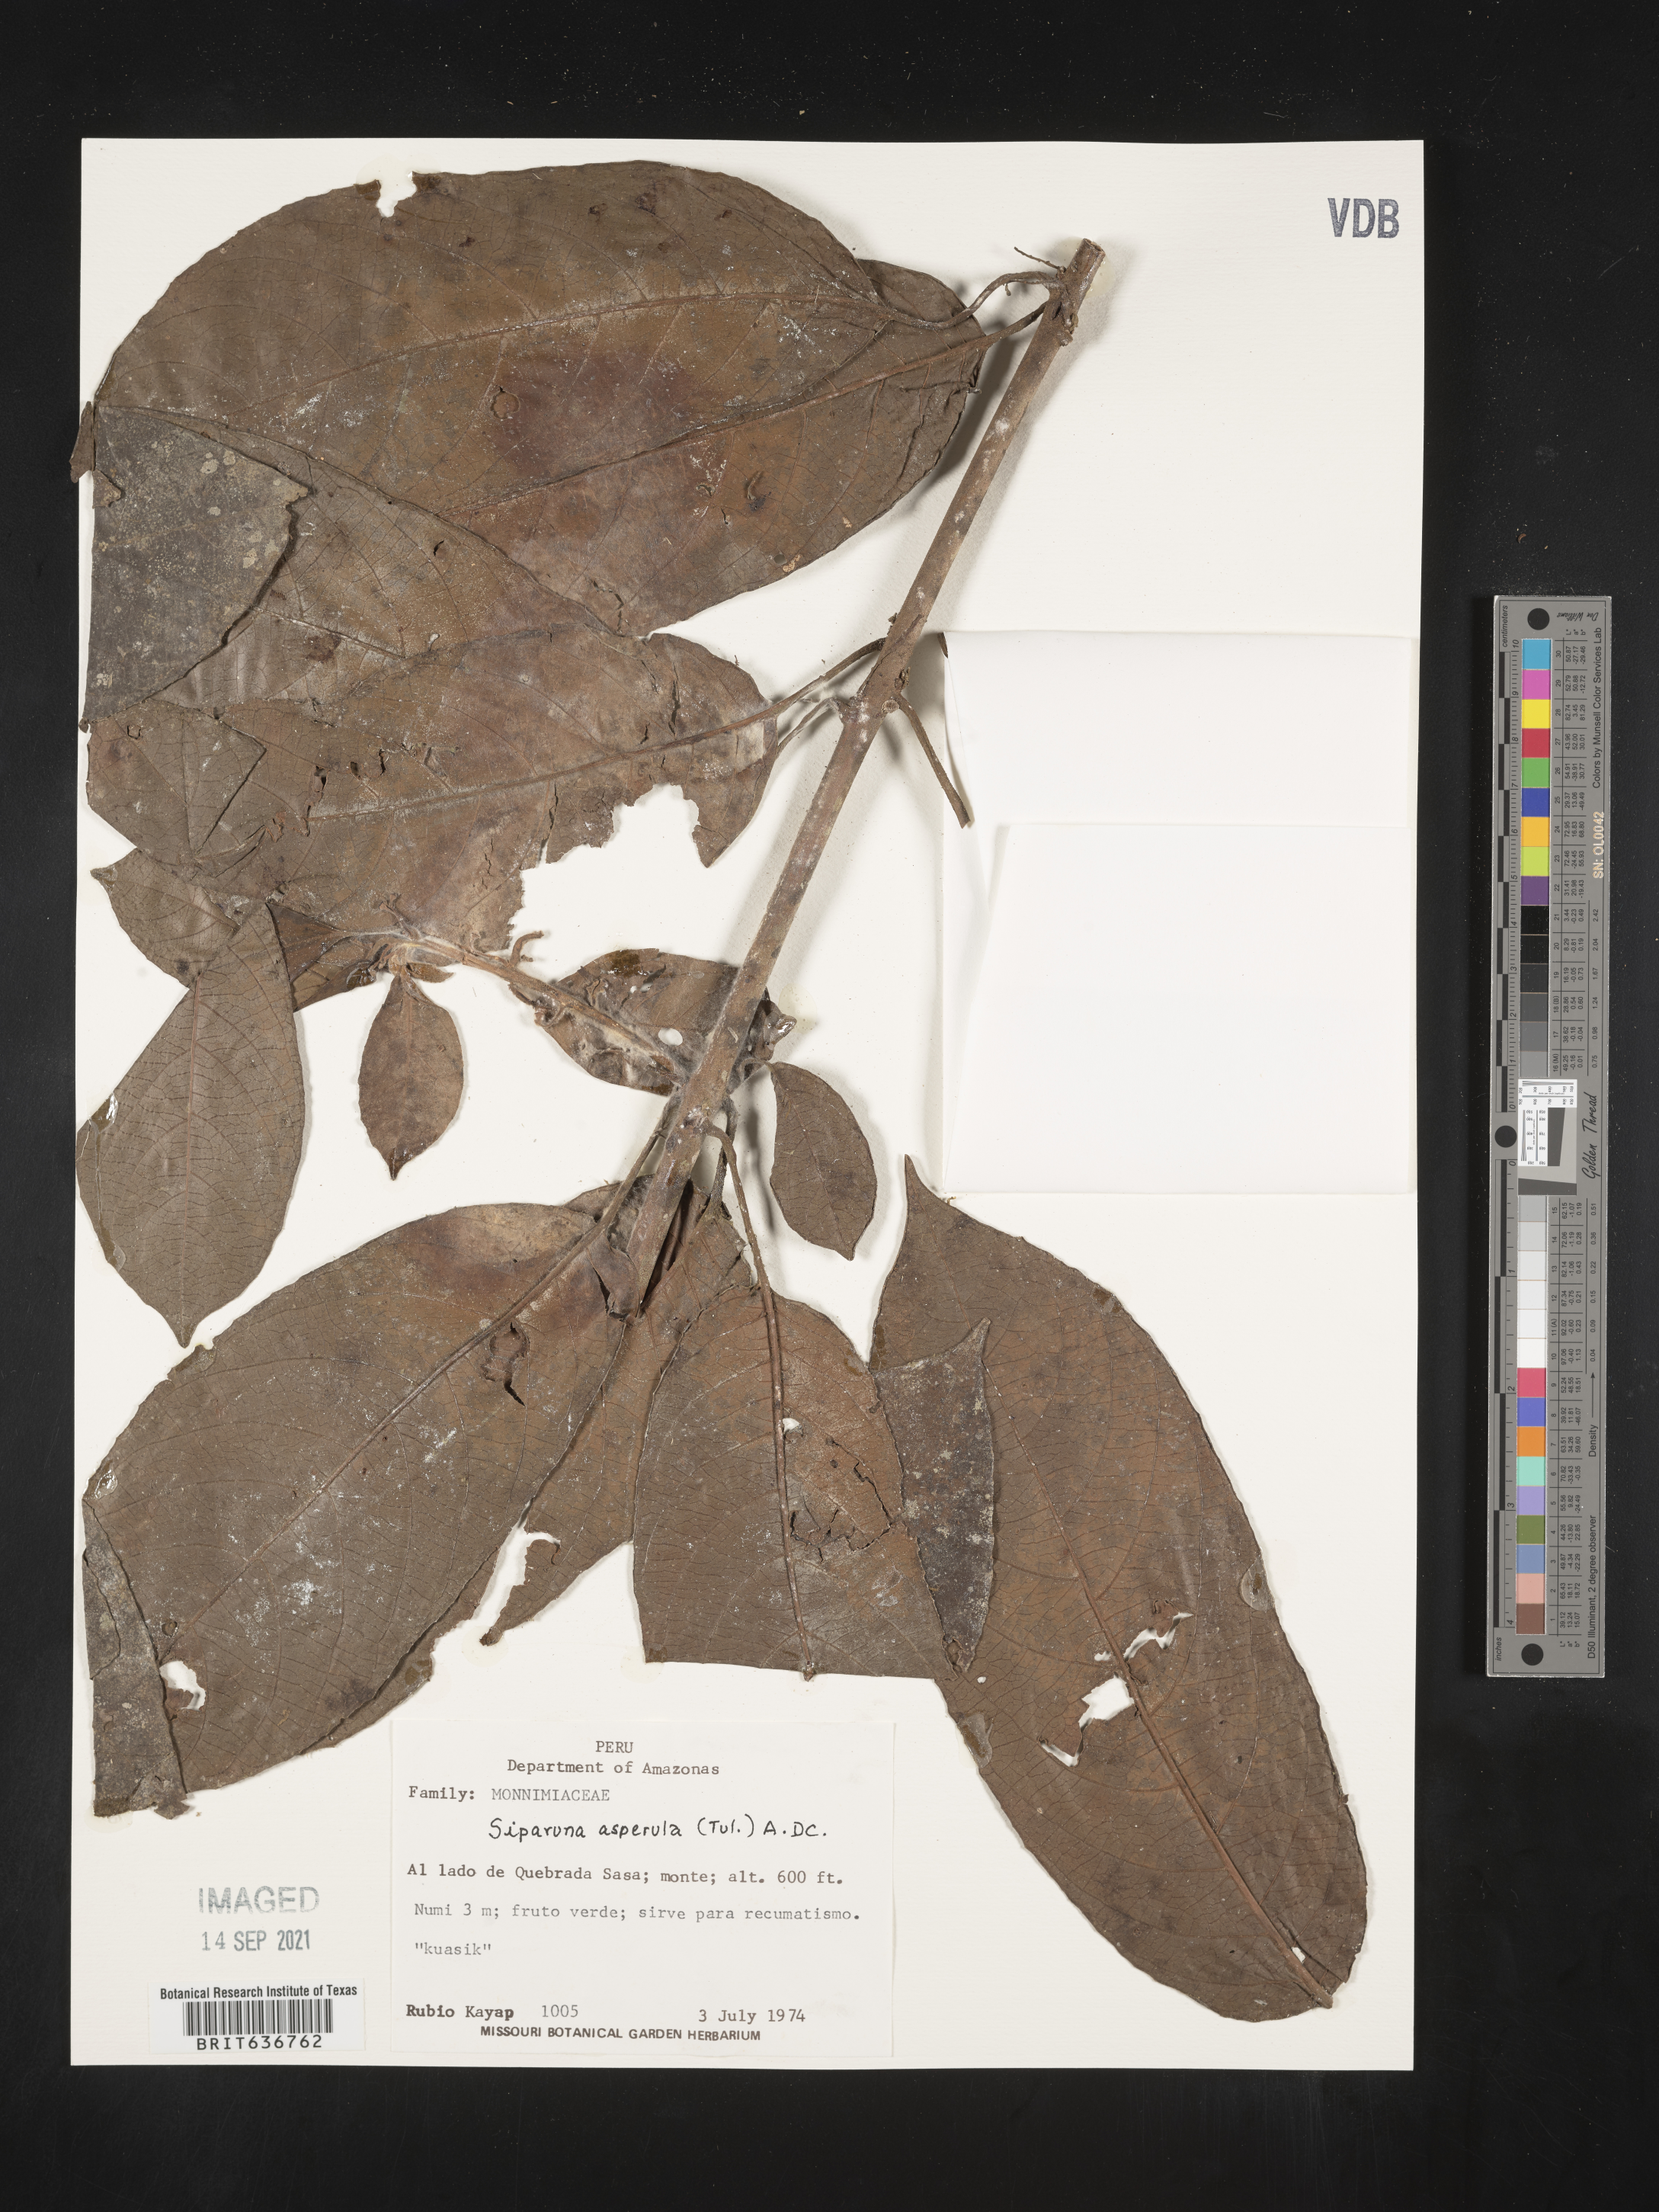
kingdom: Plantae
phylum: Tracheophyta
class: Magnoliopsida
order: Laurales
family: Siparunaceae
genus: Siparuna
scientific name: Siparuna
